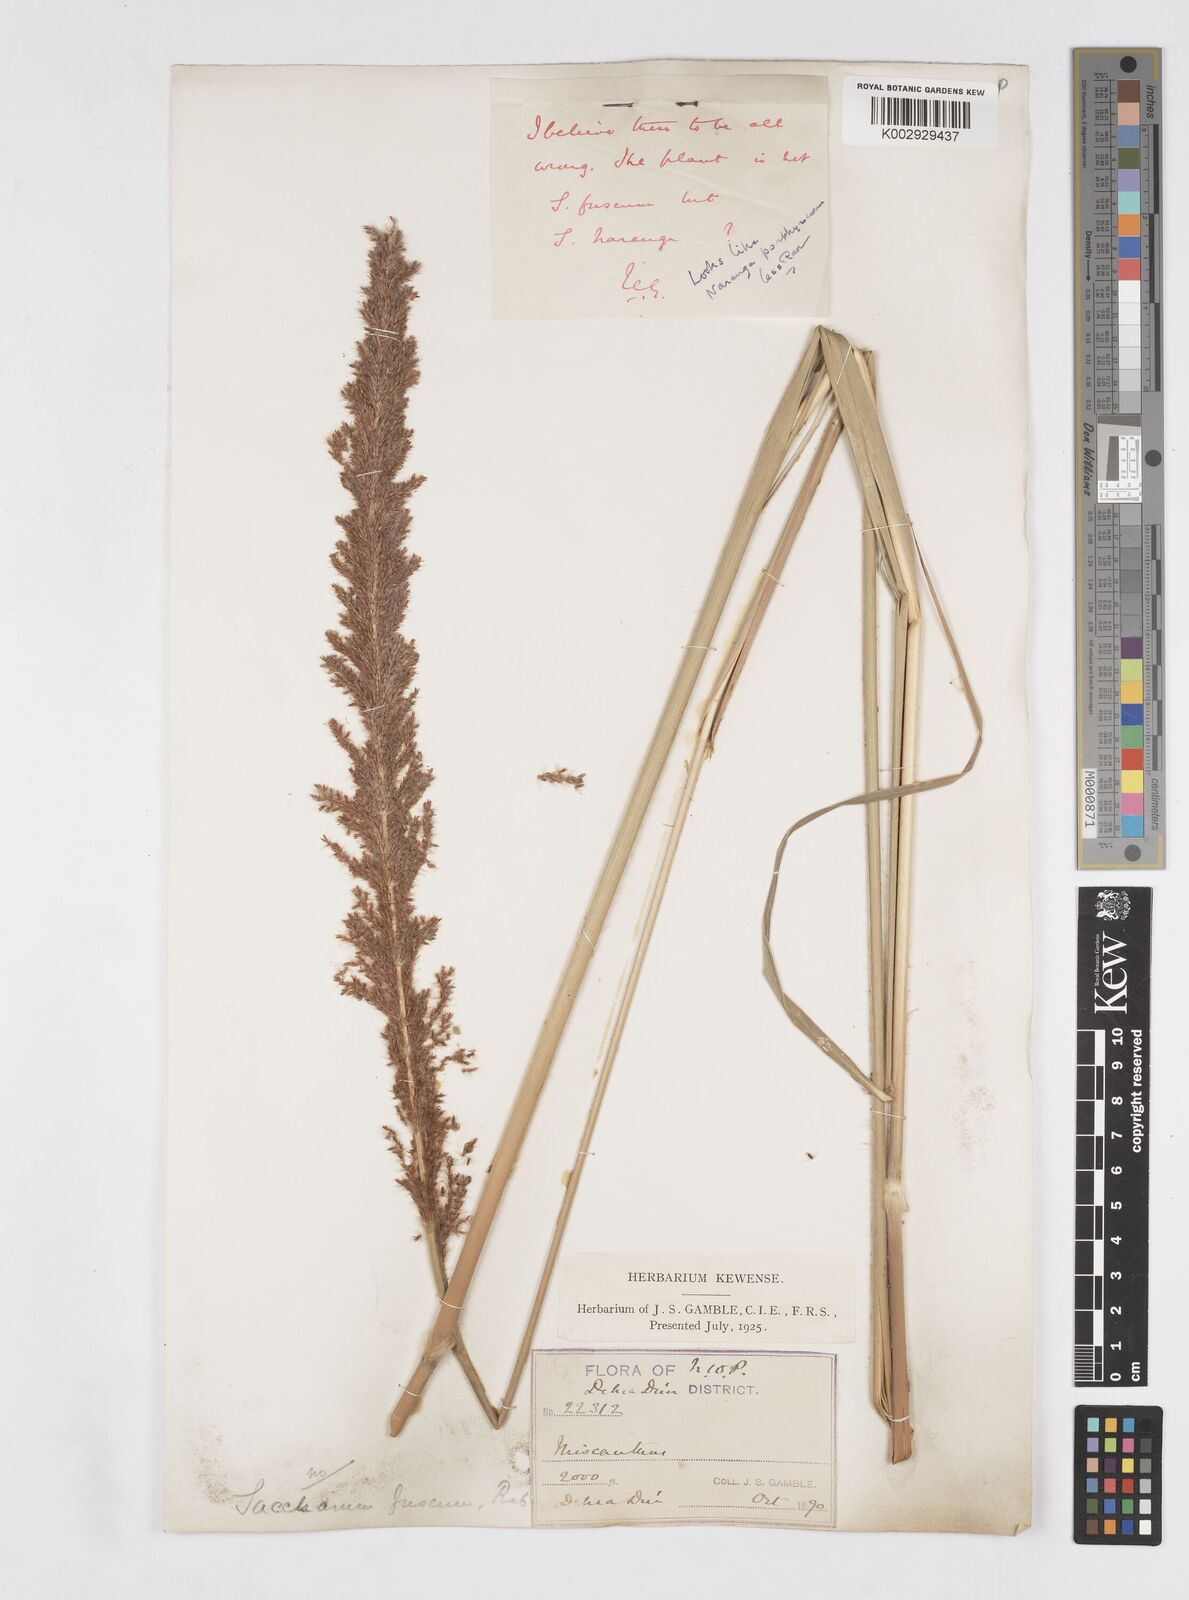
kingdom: Plantae
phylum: Tracheophyta
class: Liliopsida
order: Poales
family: Poaceae
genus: Narenga
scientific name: Narenga porphyrocoma
